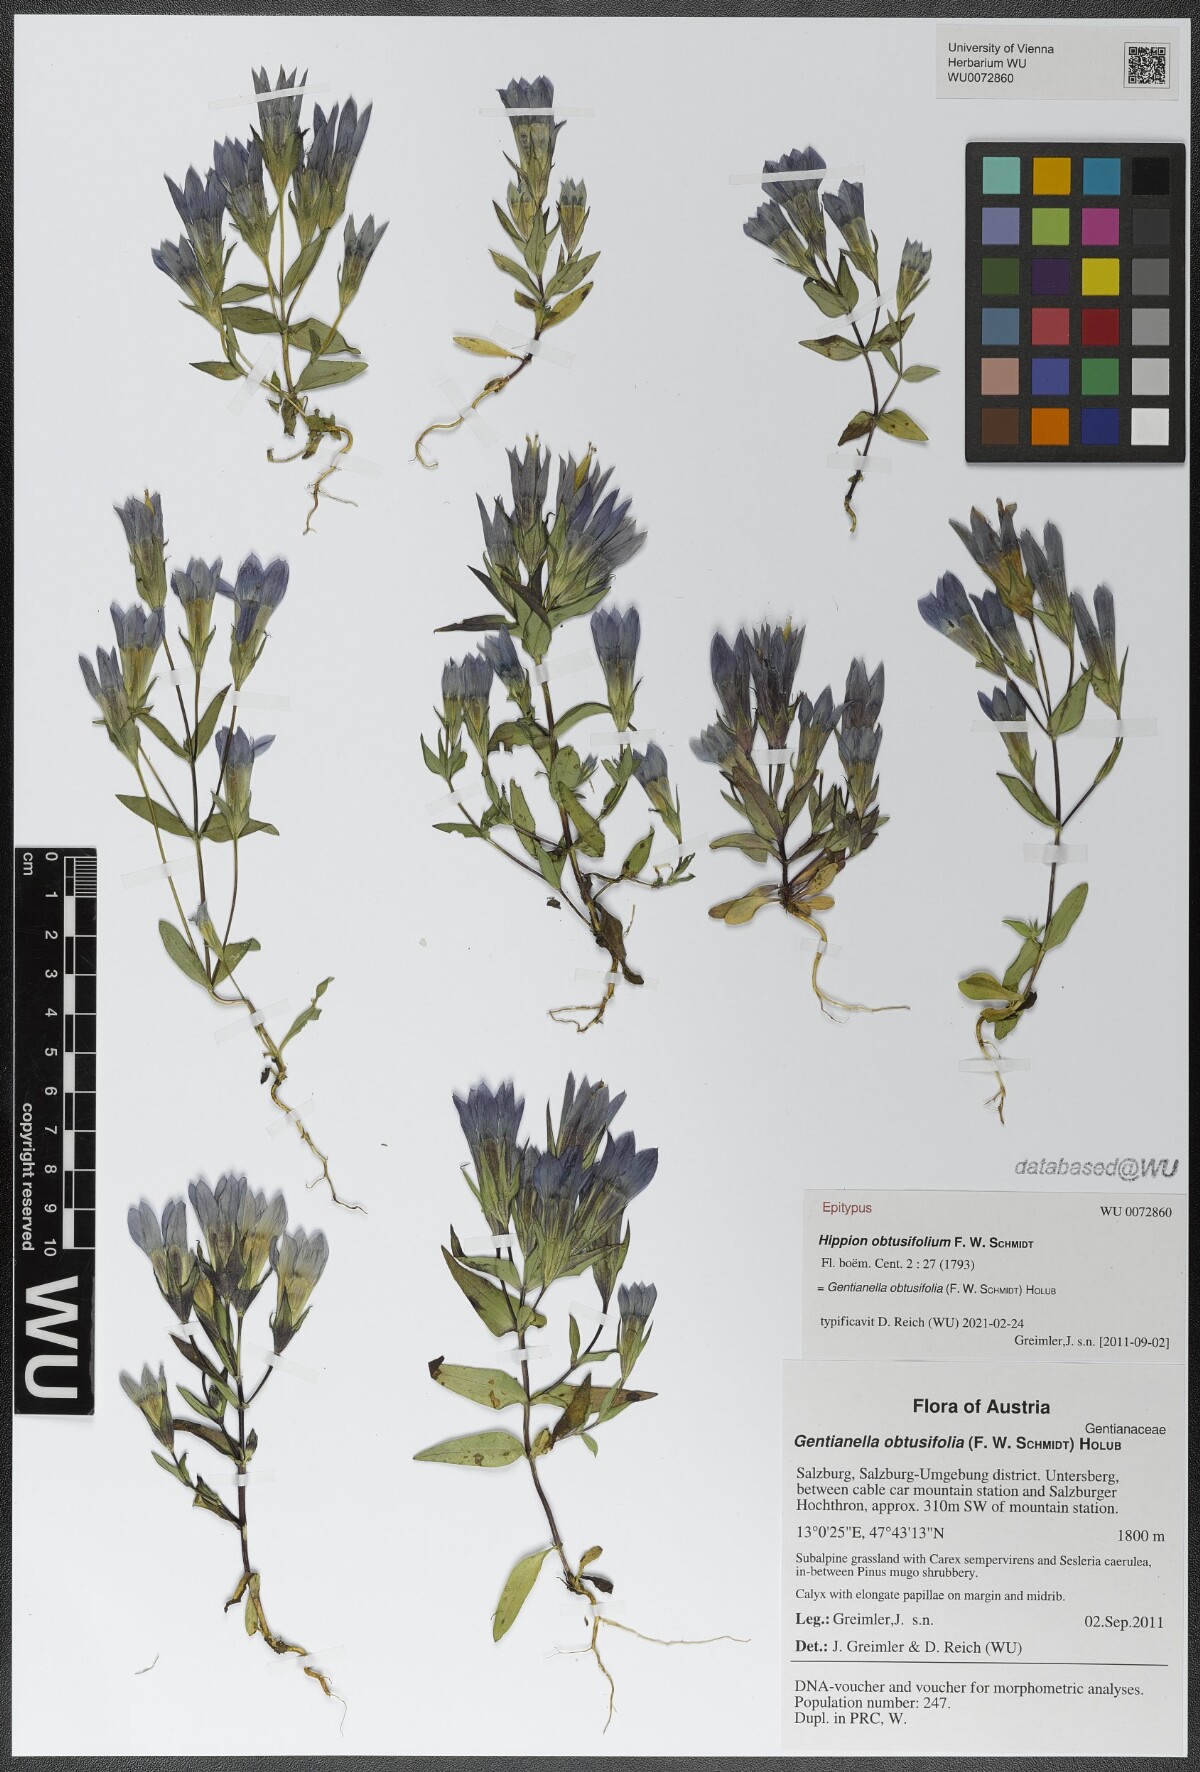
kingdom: Plantae
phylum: Tracheophyta
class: Magnoliopsida
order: Gentianales
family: Gentianaceae
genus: Gentianella
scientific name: Gentianella obtusifolia
